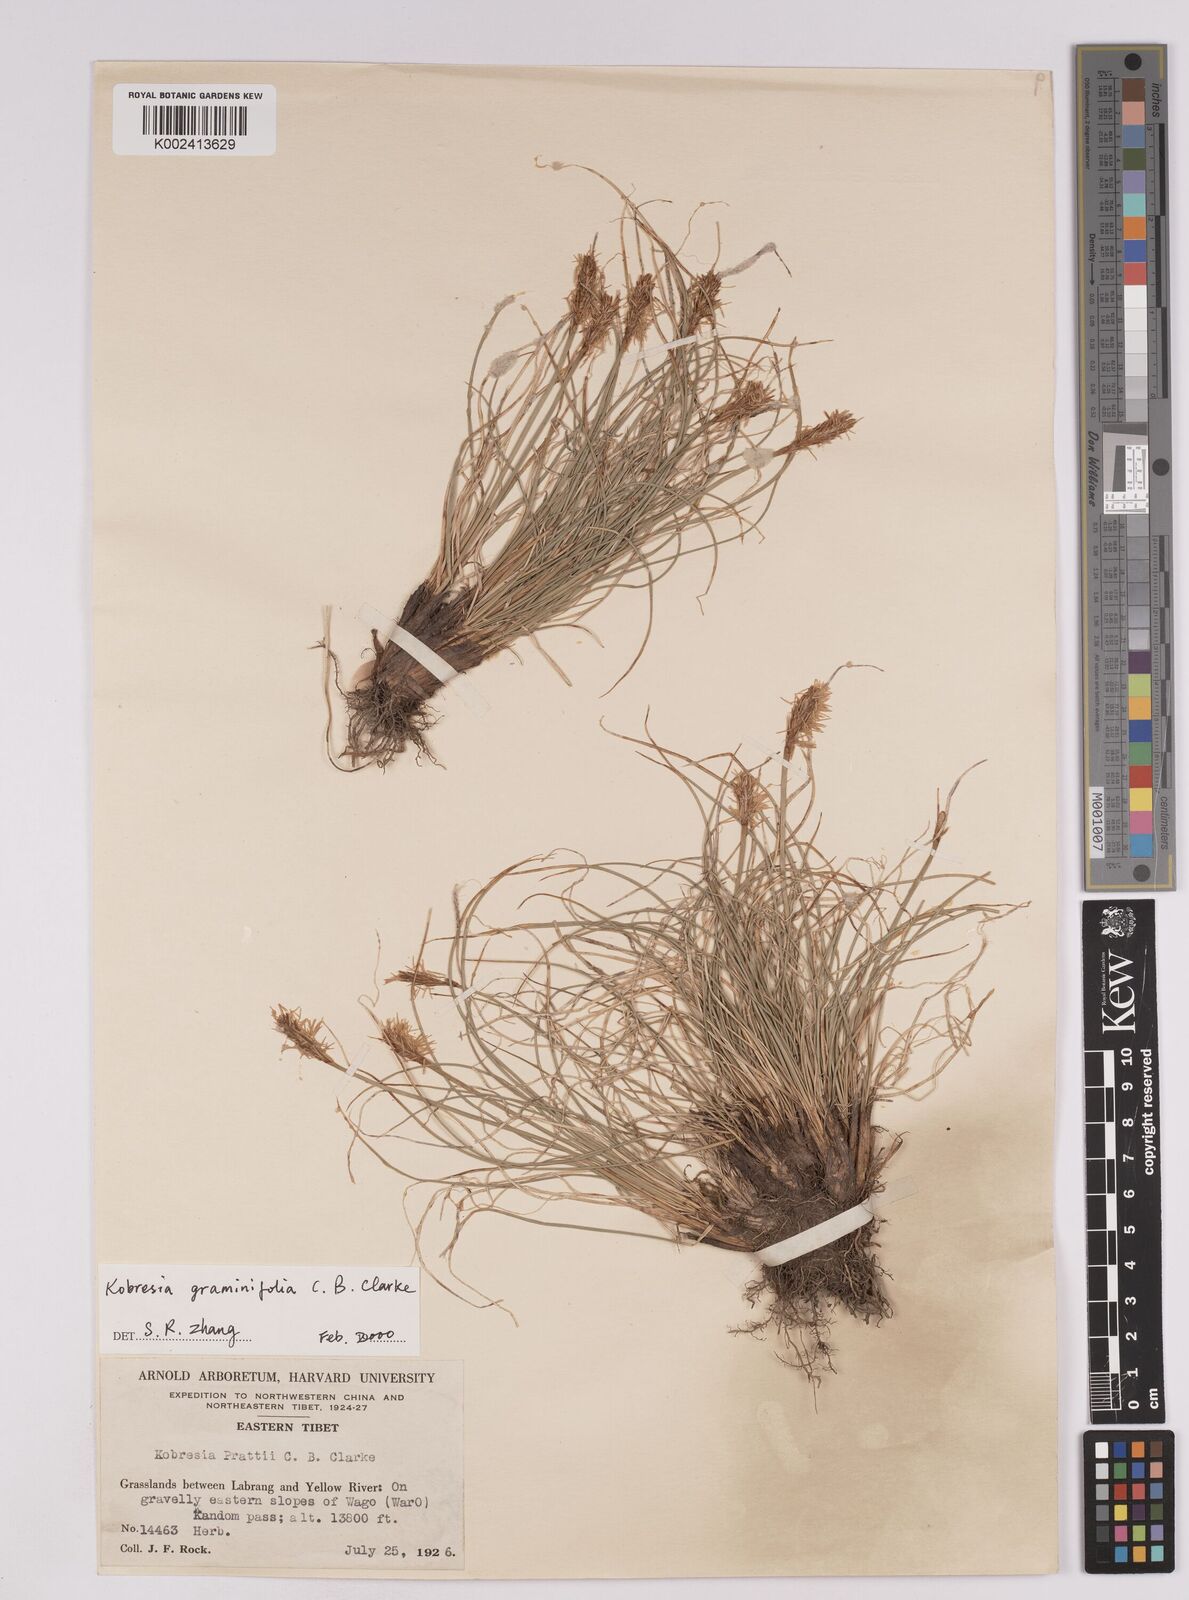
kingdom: Plantae
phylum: Tracheophyta
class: Liliopsida
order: Poales
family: Cyperaceae
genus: Carex
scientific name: Carex hughii
